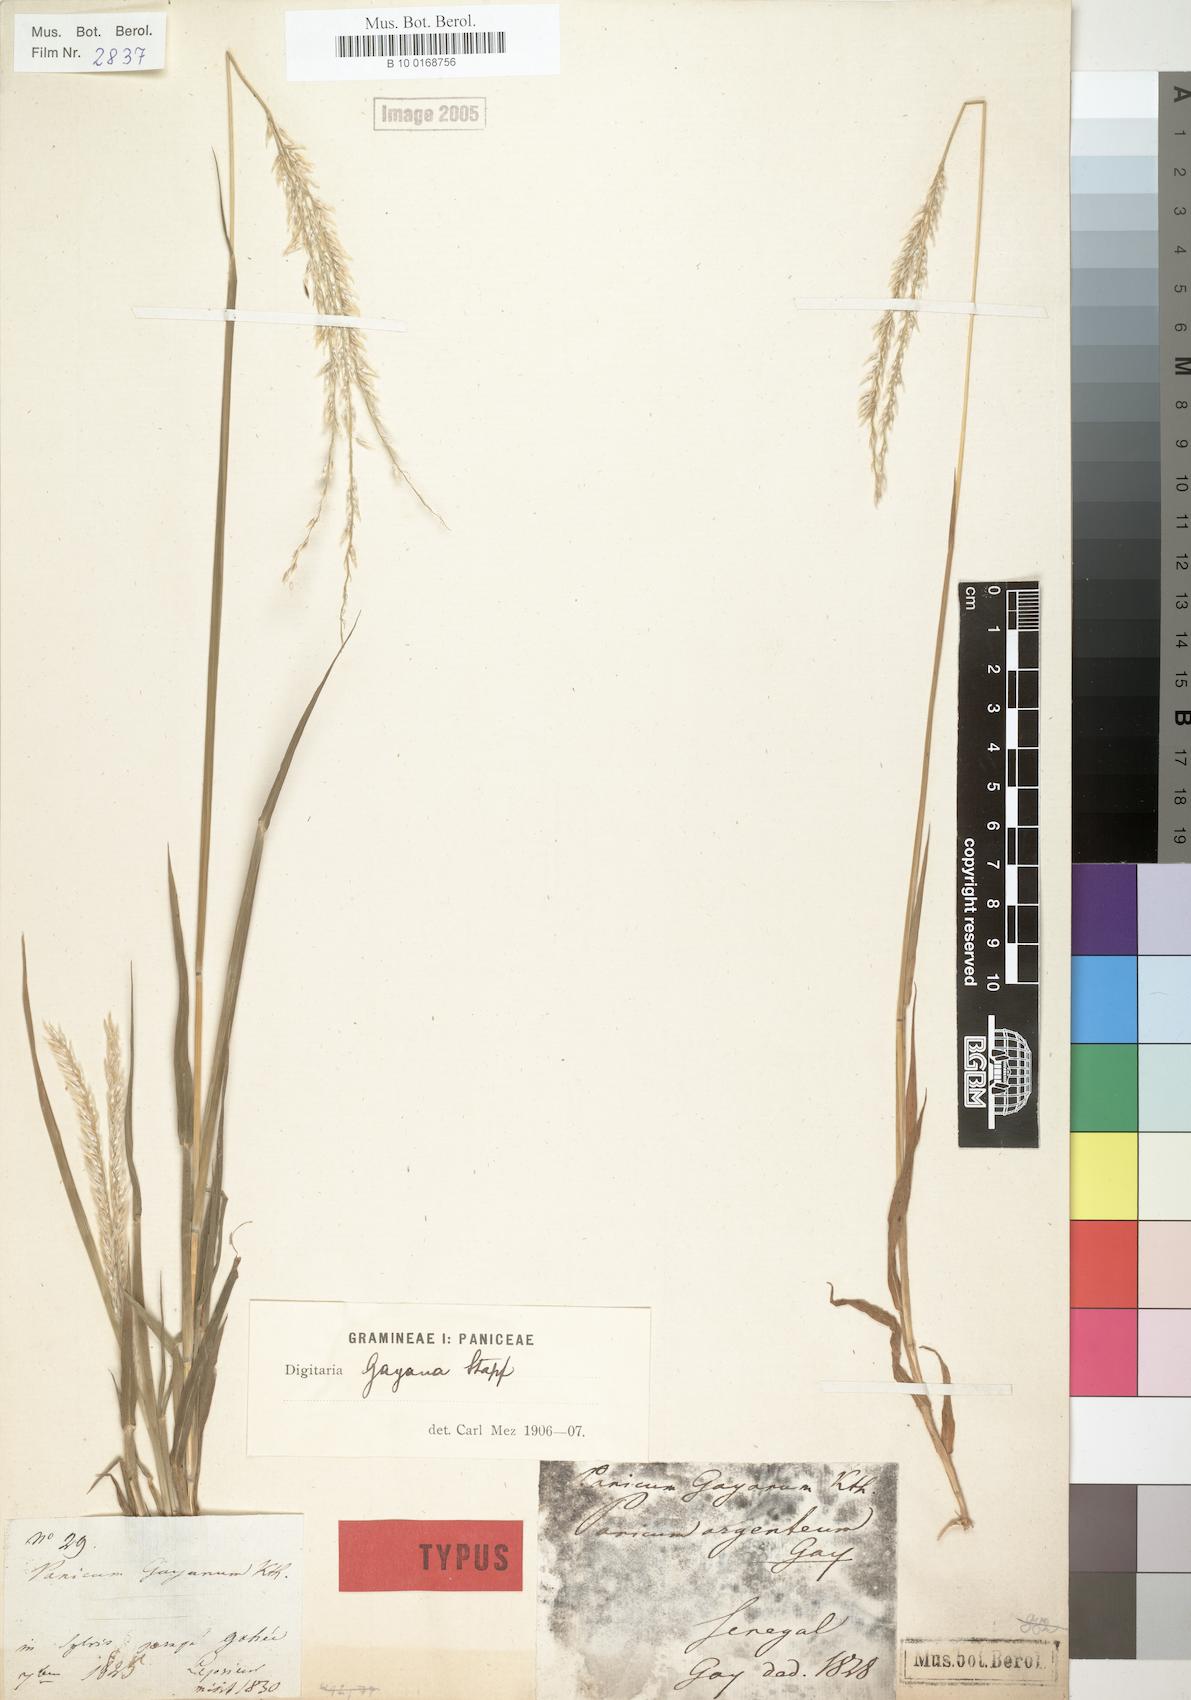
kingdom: Plantae
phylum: Tracheophyta
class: Liliopsida
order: Poales
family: Poaceae
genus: Digitaria
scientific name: Digitaria gayana
